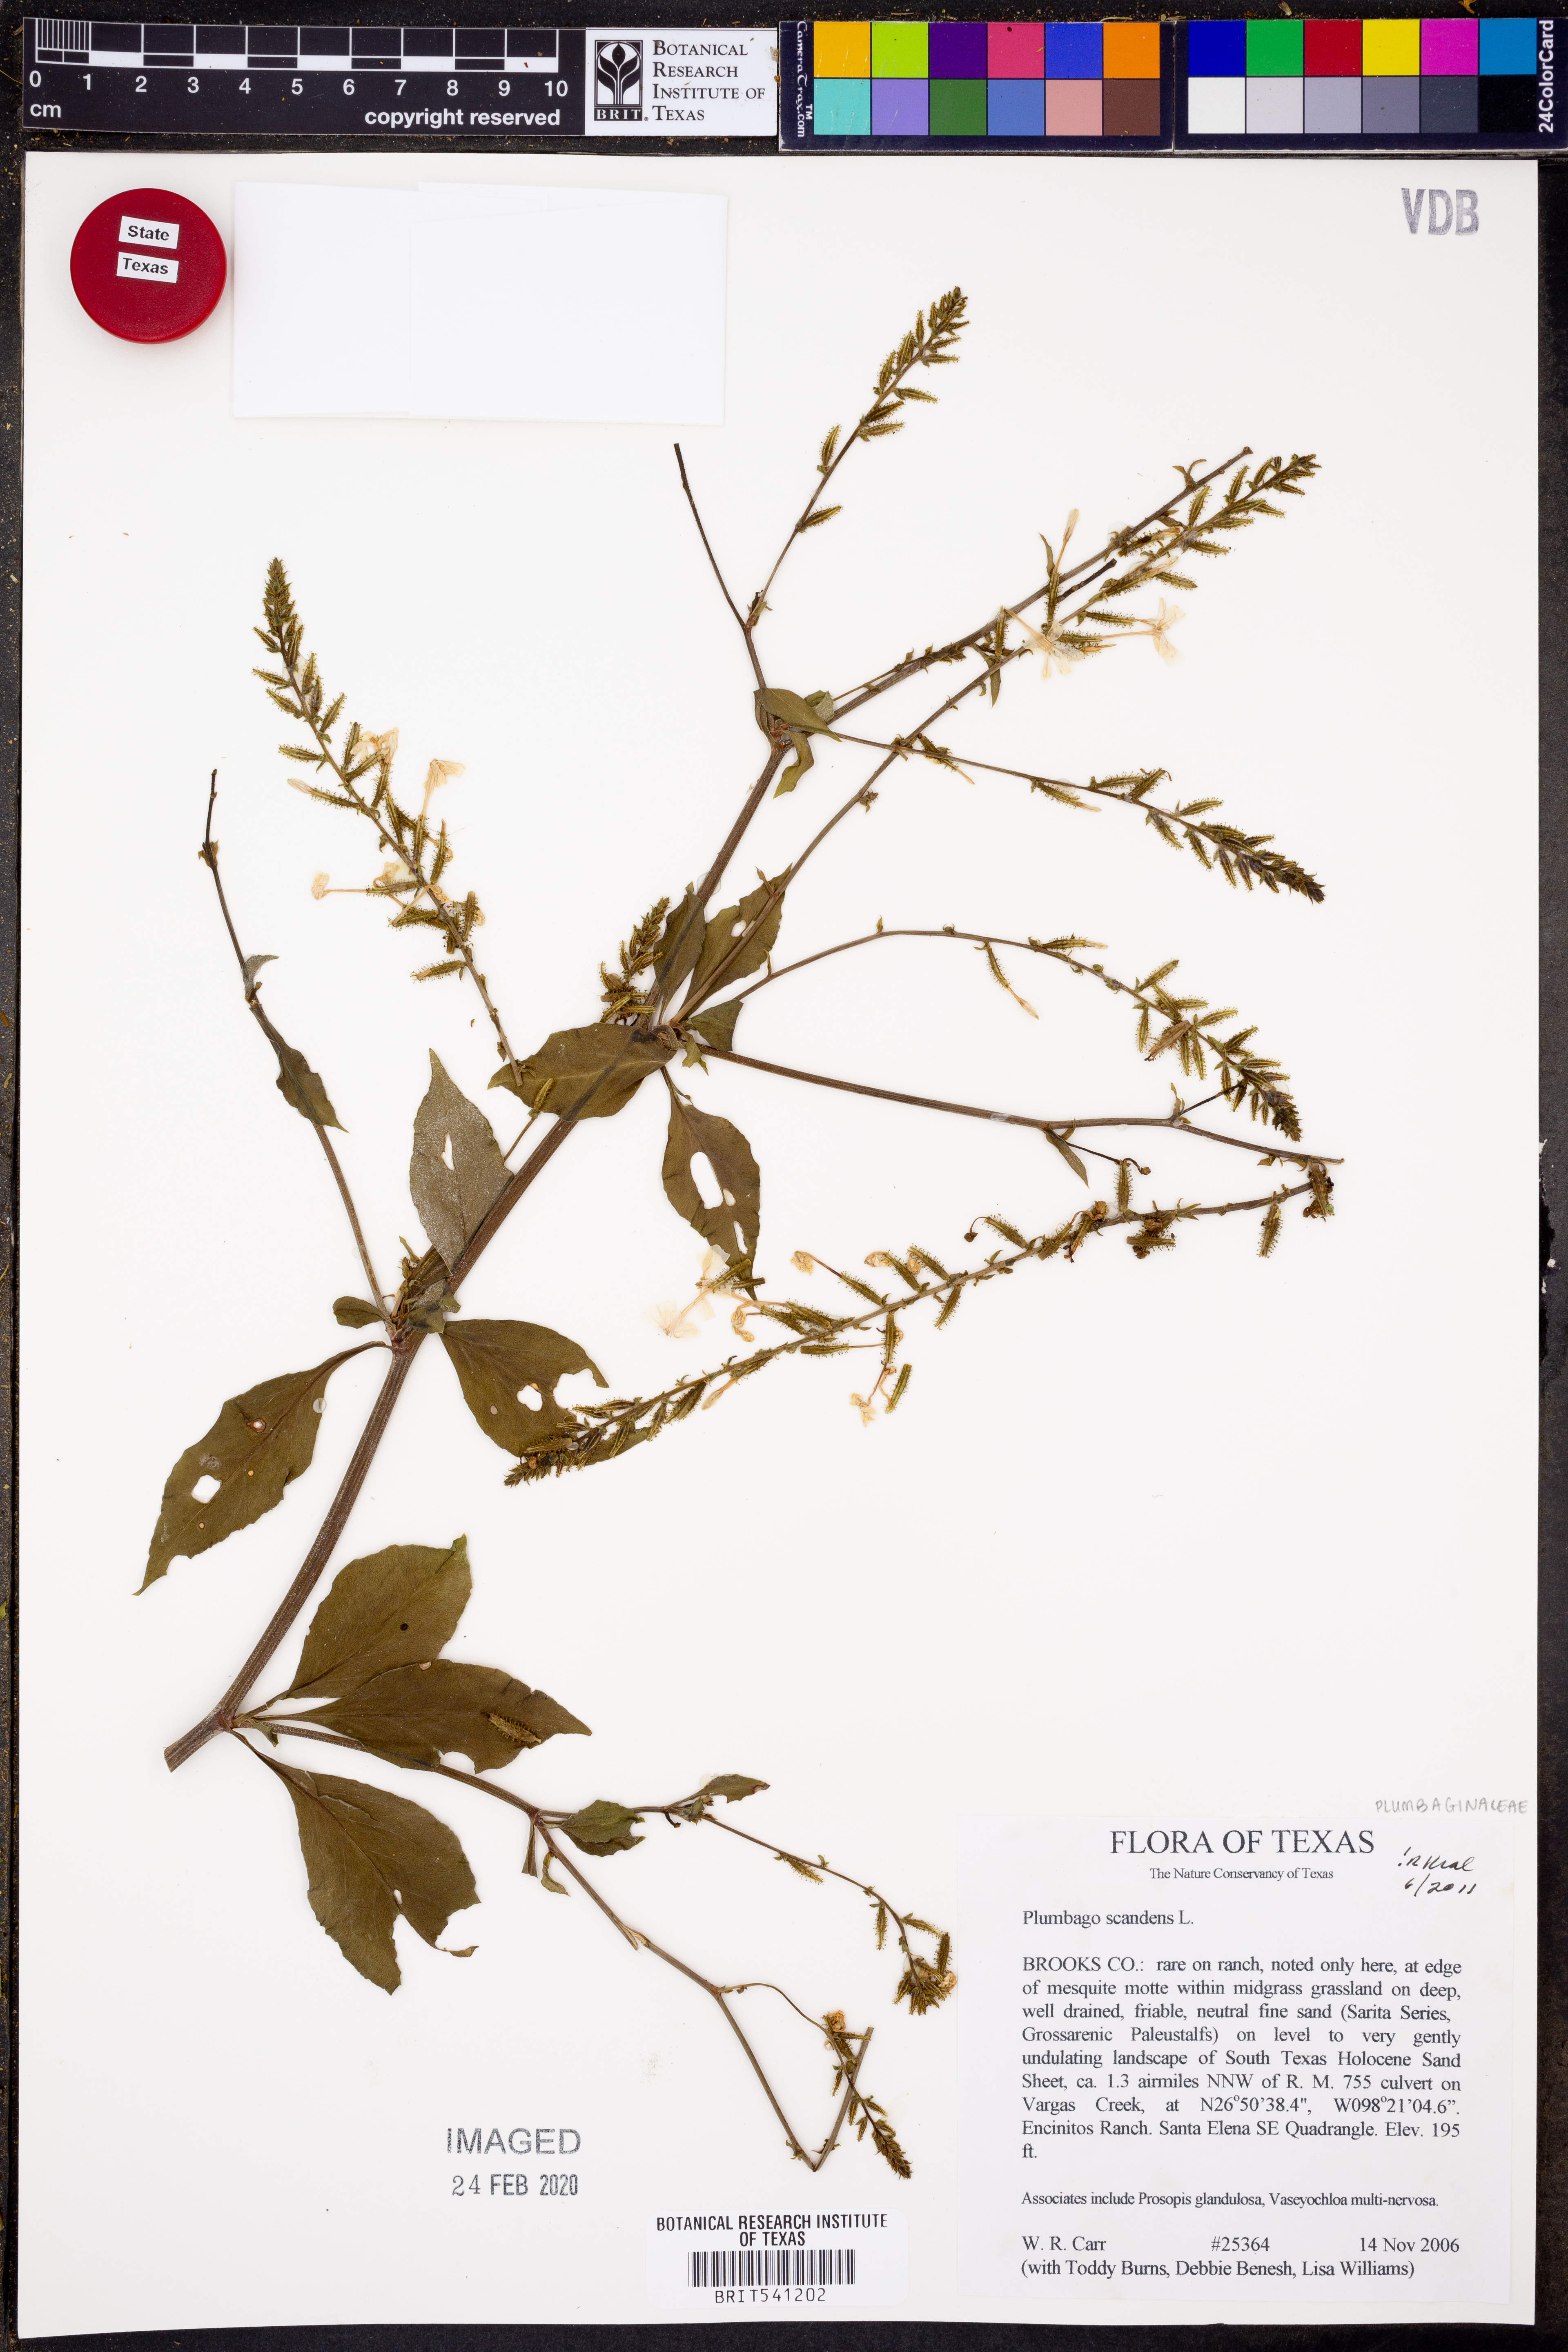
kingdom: Plantae
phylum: Tracheophyta
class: Magnoliopsida
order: Caryophyllales
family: Plumbaginaceae
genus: Plumbago
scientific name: Plumbago zeylanica
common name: Doctorbush
